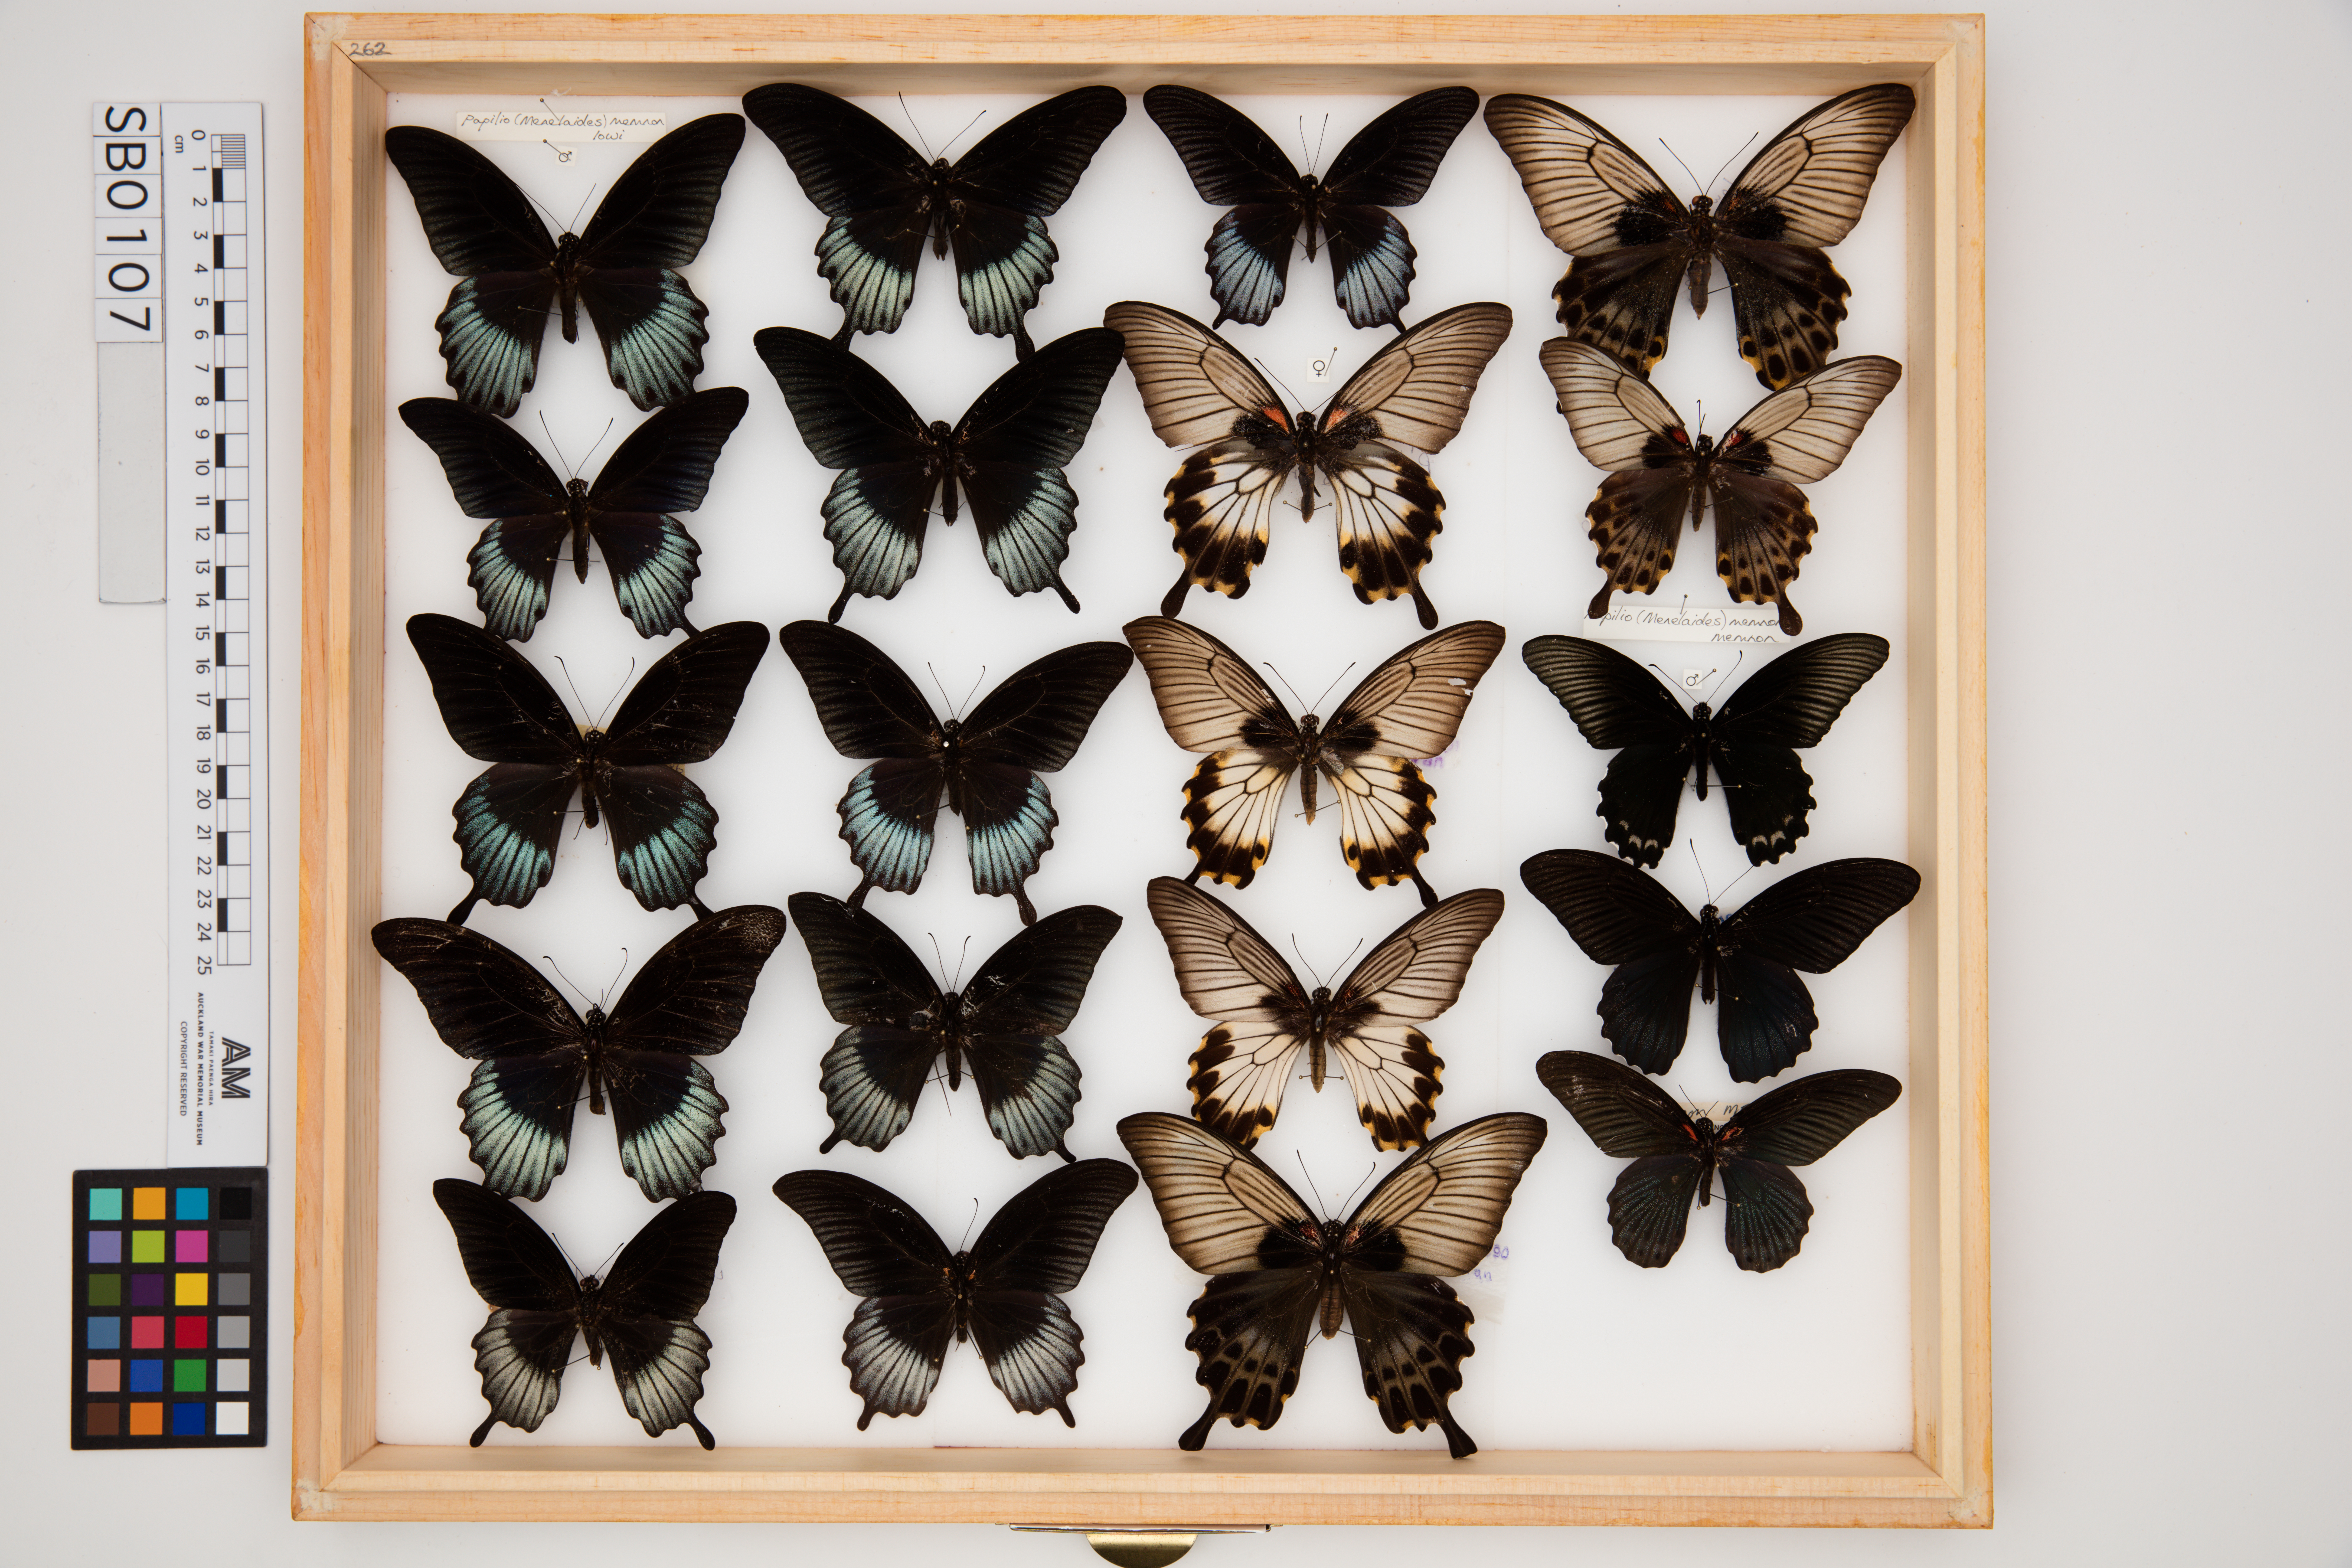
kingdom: Animalia
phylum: Arthropoda
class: Insecta
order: Lepidoptera
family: Papilionidae
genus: Papilio
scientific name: Papilio memnon
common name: Great mormon
